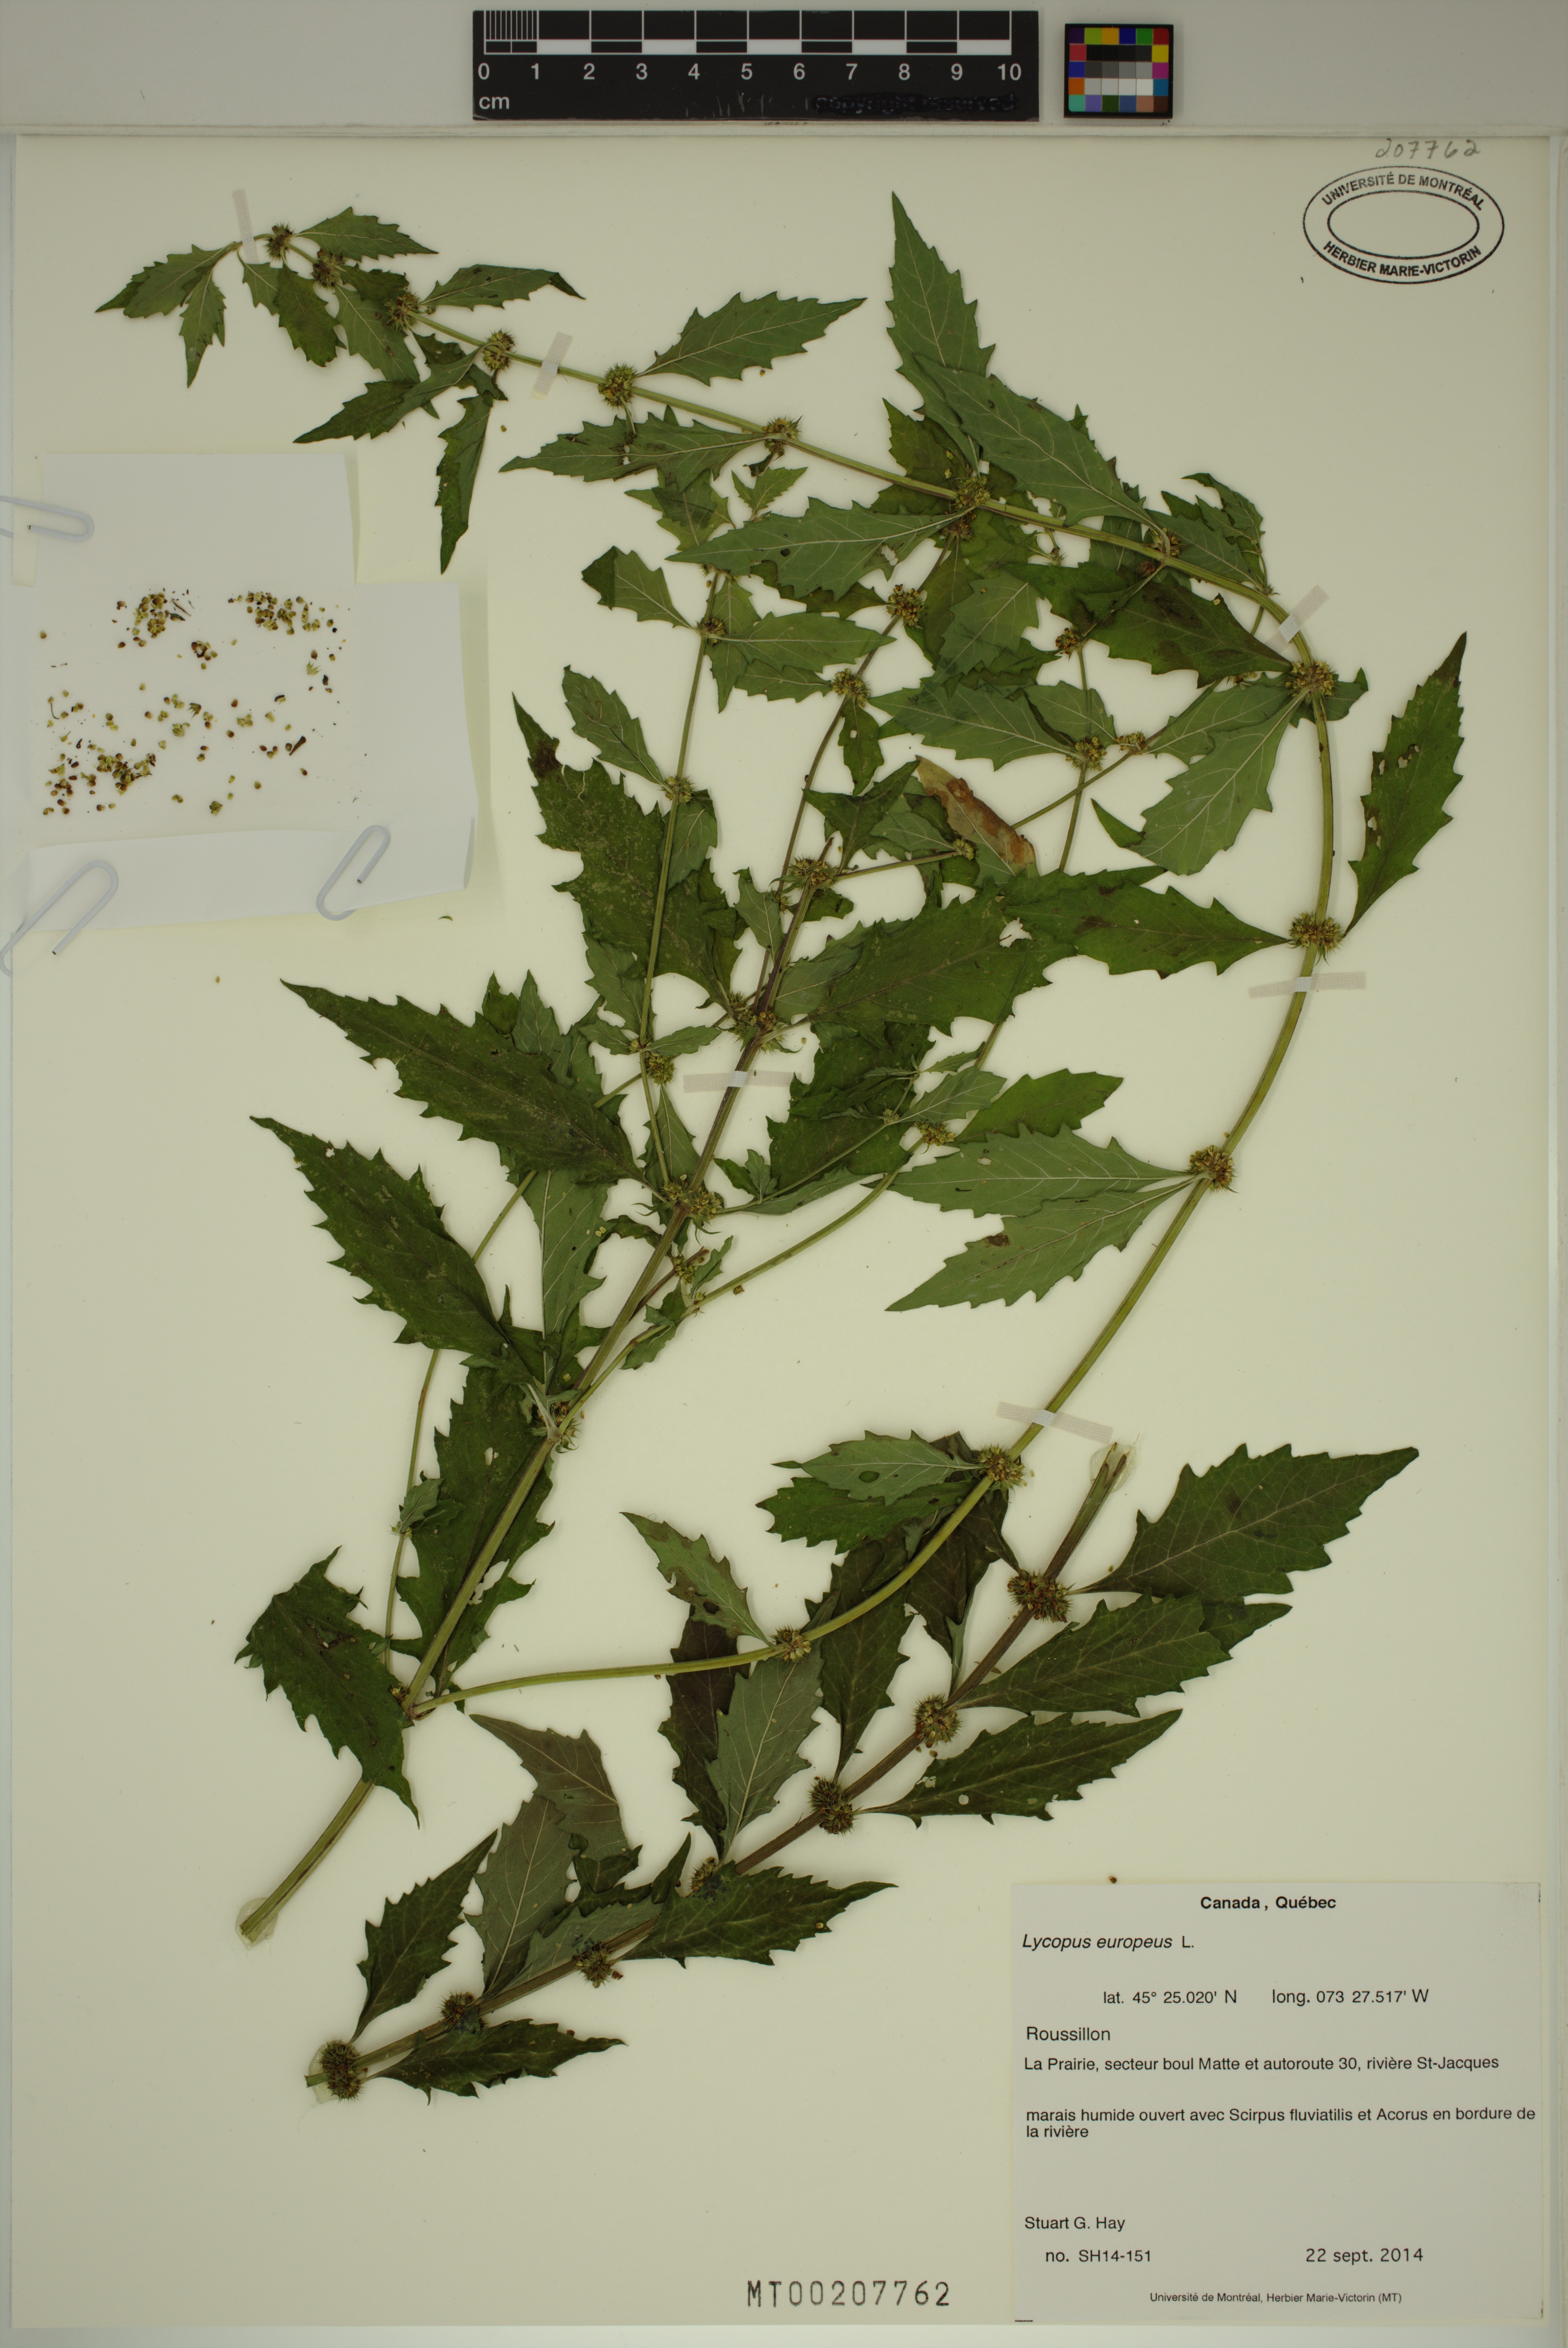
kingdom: Plantae
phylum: Tracheophyta
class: Magnoliopsida
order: Lamiales
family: Lamiaceae
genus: Lycopus
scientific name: Lycopus europaeus
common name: European bugleweed
